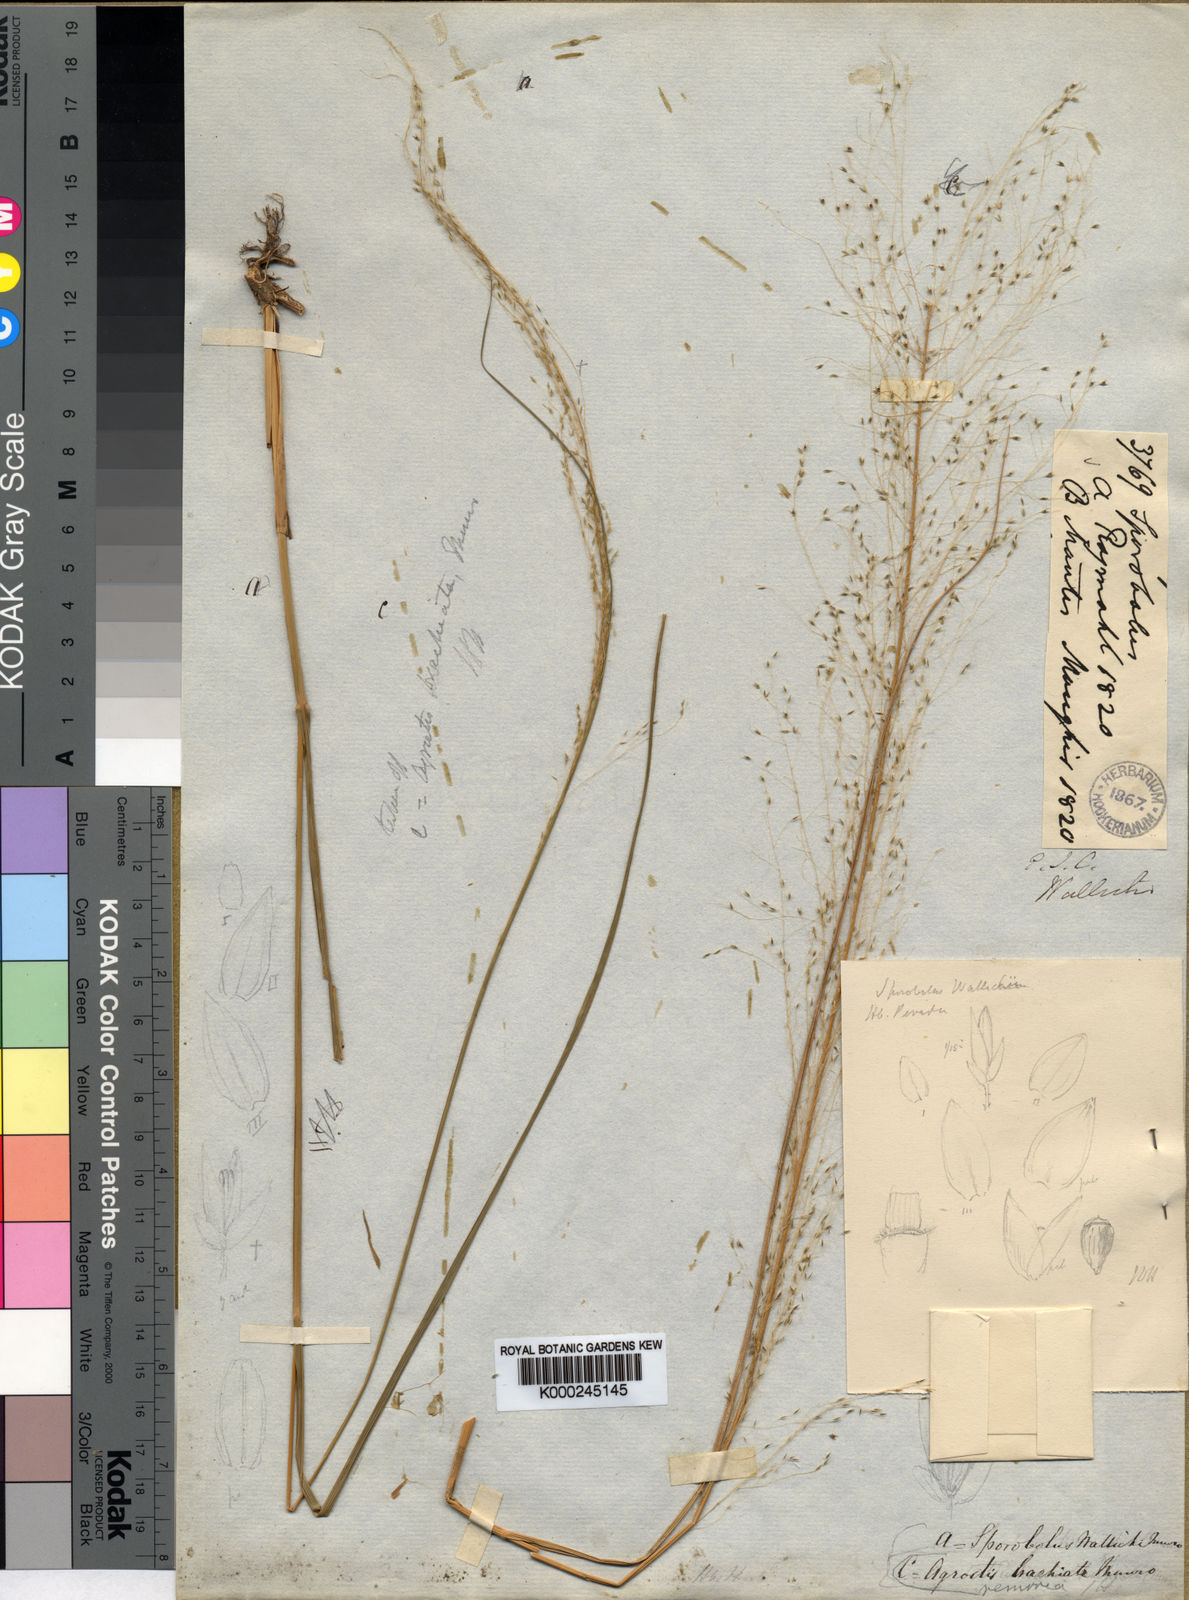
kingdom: Plantae
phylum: Tracheophyta
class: Liliopsida
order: Poales
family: Poaceae
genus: Sporobolus
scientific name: Sporobolus
